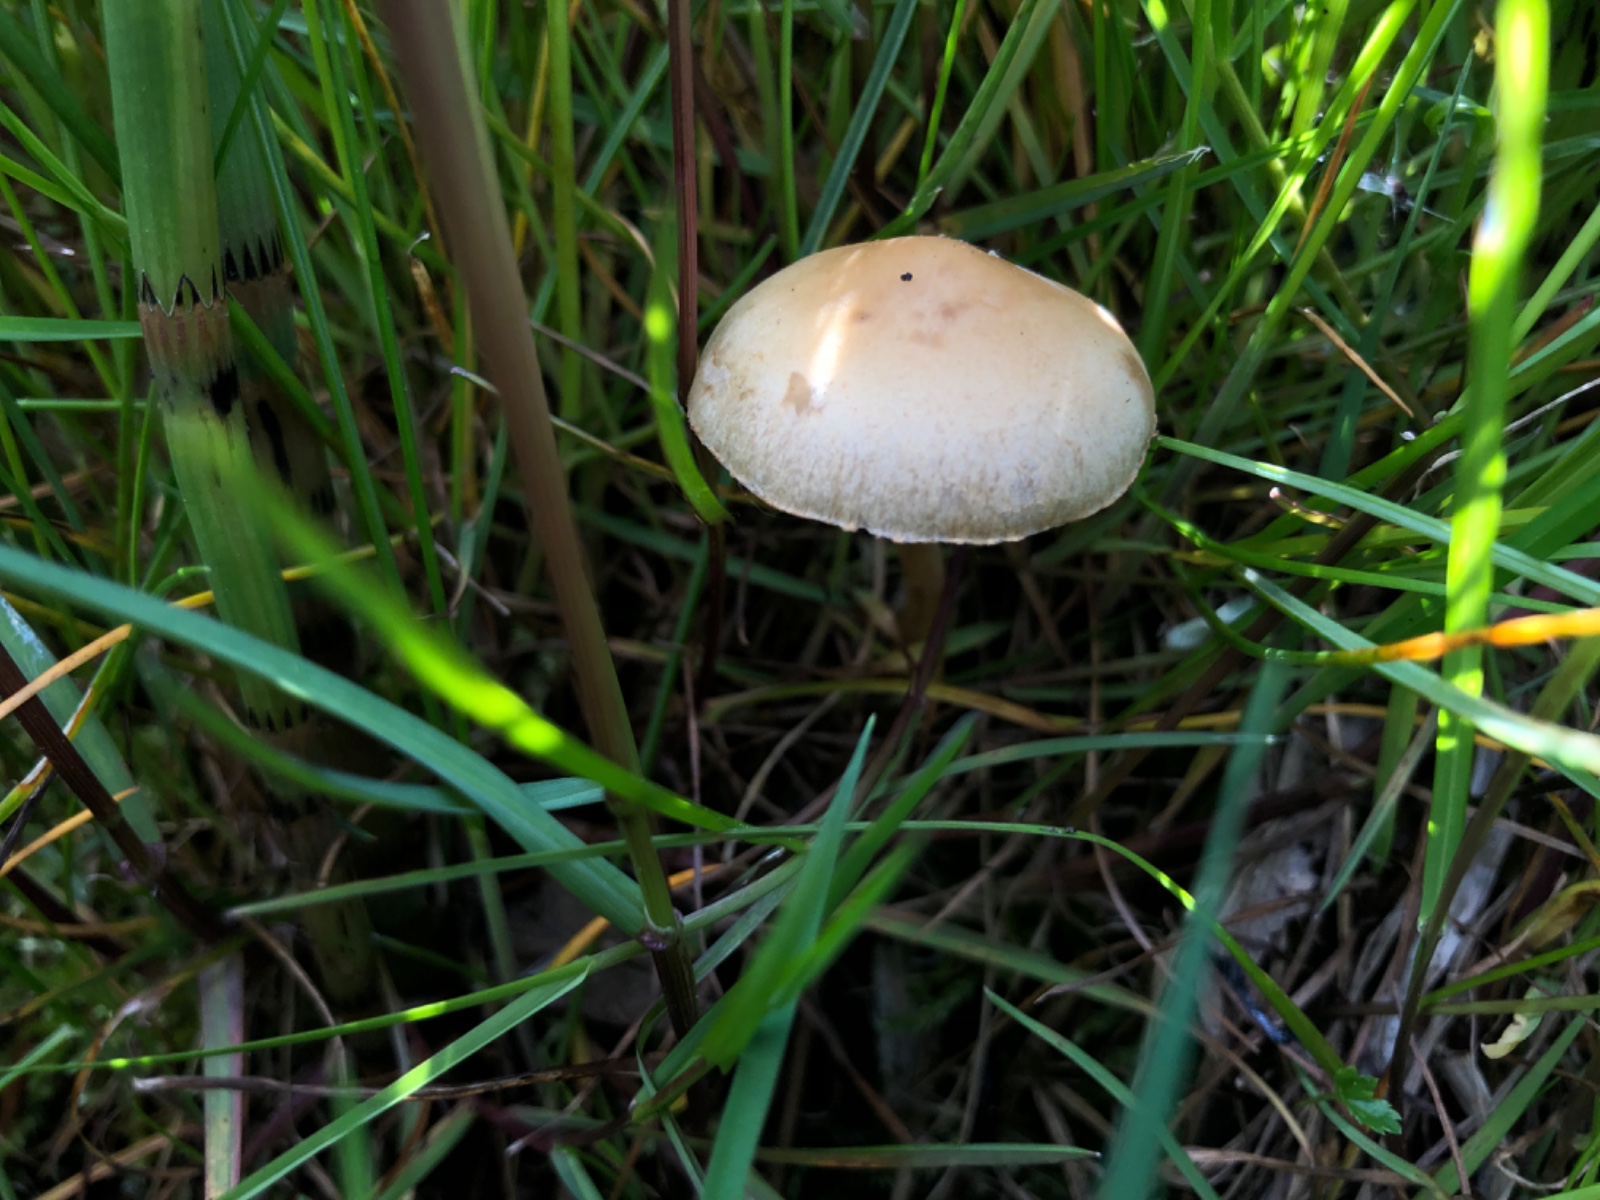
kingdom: Fungi
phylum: Basidiomycota
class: Agaricomycetes
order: Agaricales
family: Strophariaceae
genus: Agrocybe
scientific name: Agrocybe elatella
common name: mose-agerhat
